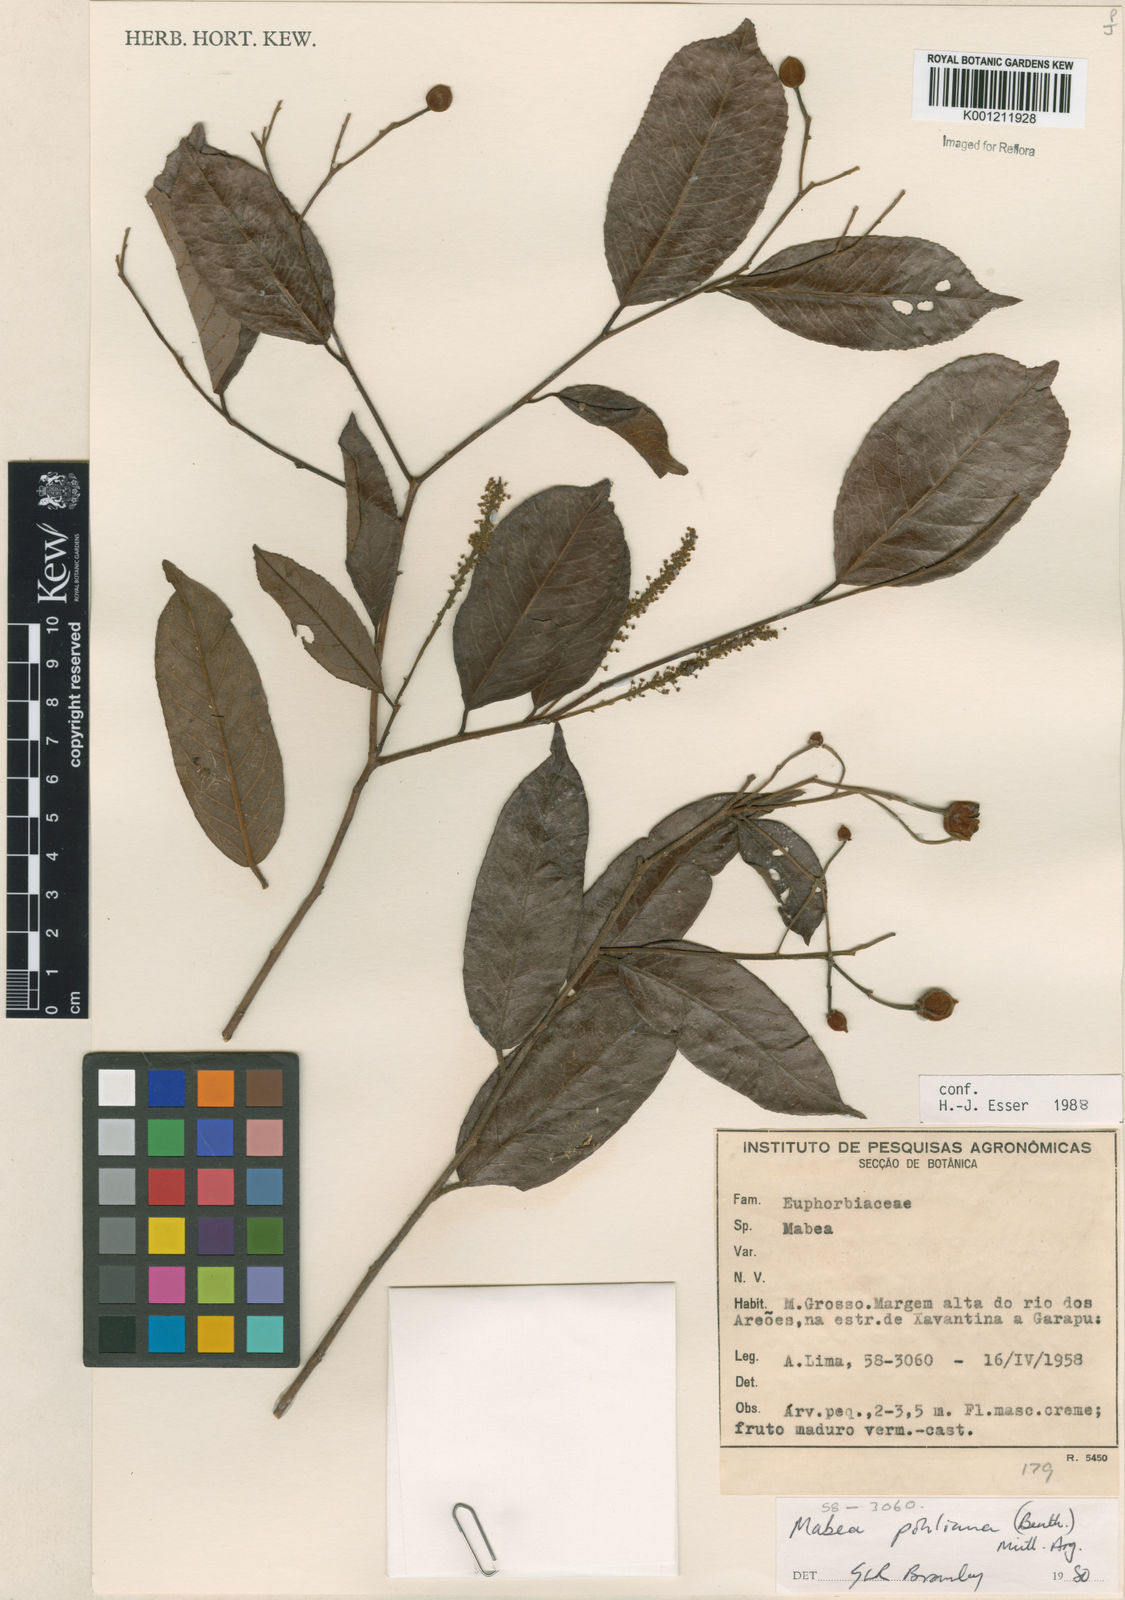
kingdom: Plantae
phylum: Tracheophyta
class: Magnoliopsida
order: Malpighiales
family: Euphorbiaceae
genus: Mabea
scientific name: Mabea
